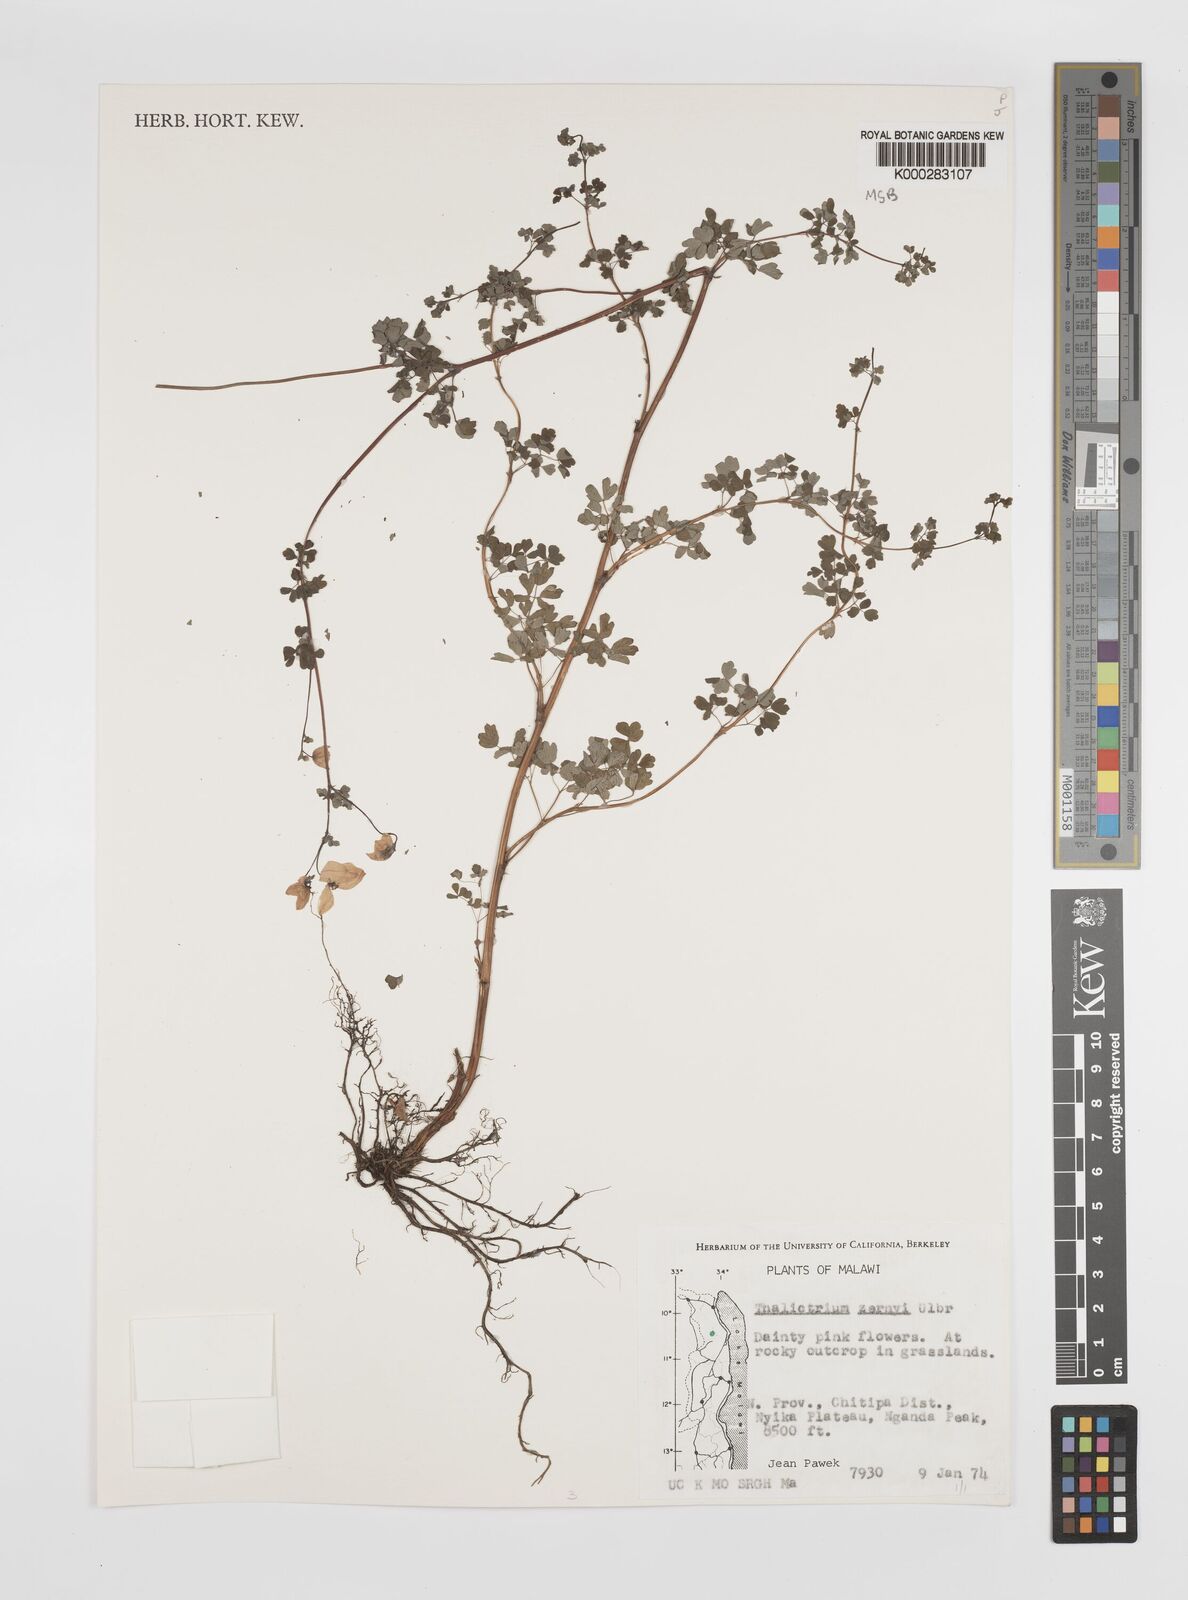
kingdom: Plantae
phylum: Tracheophyta
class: Magnoliopsida
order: Ranunculales
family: Ranunculaceae
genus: Thalictrum
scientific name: Thalictrum zernyi
